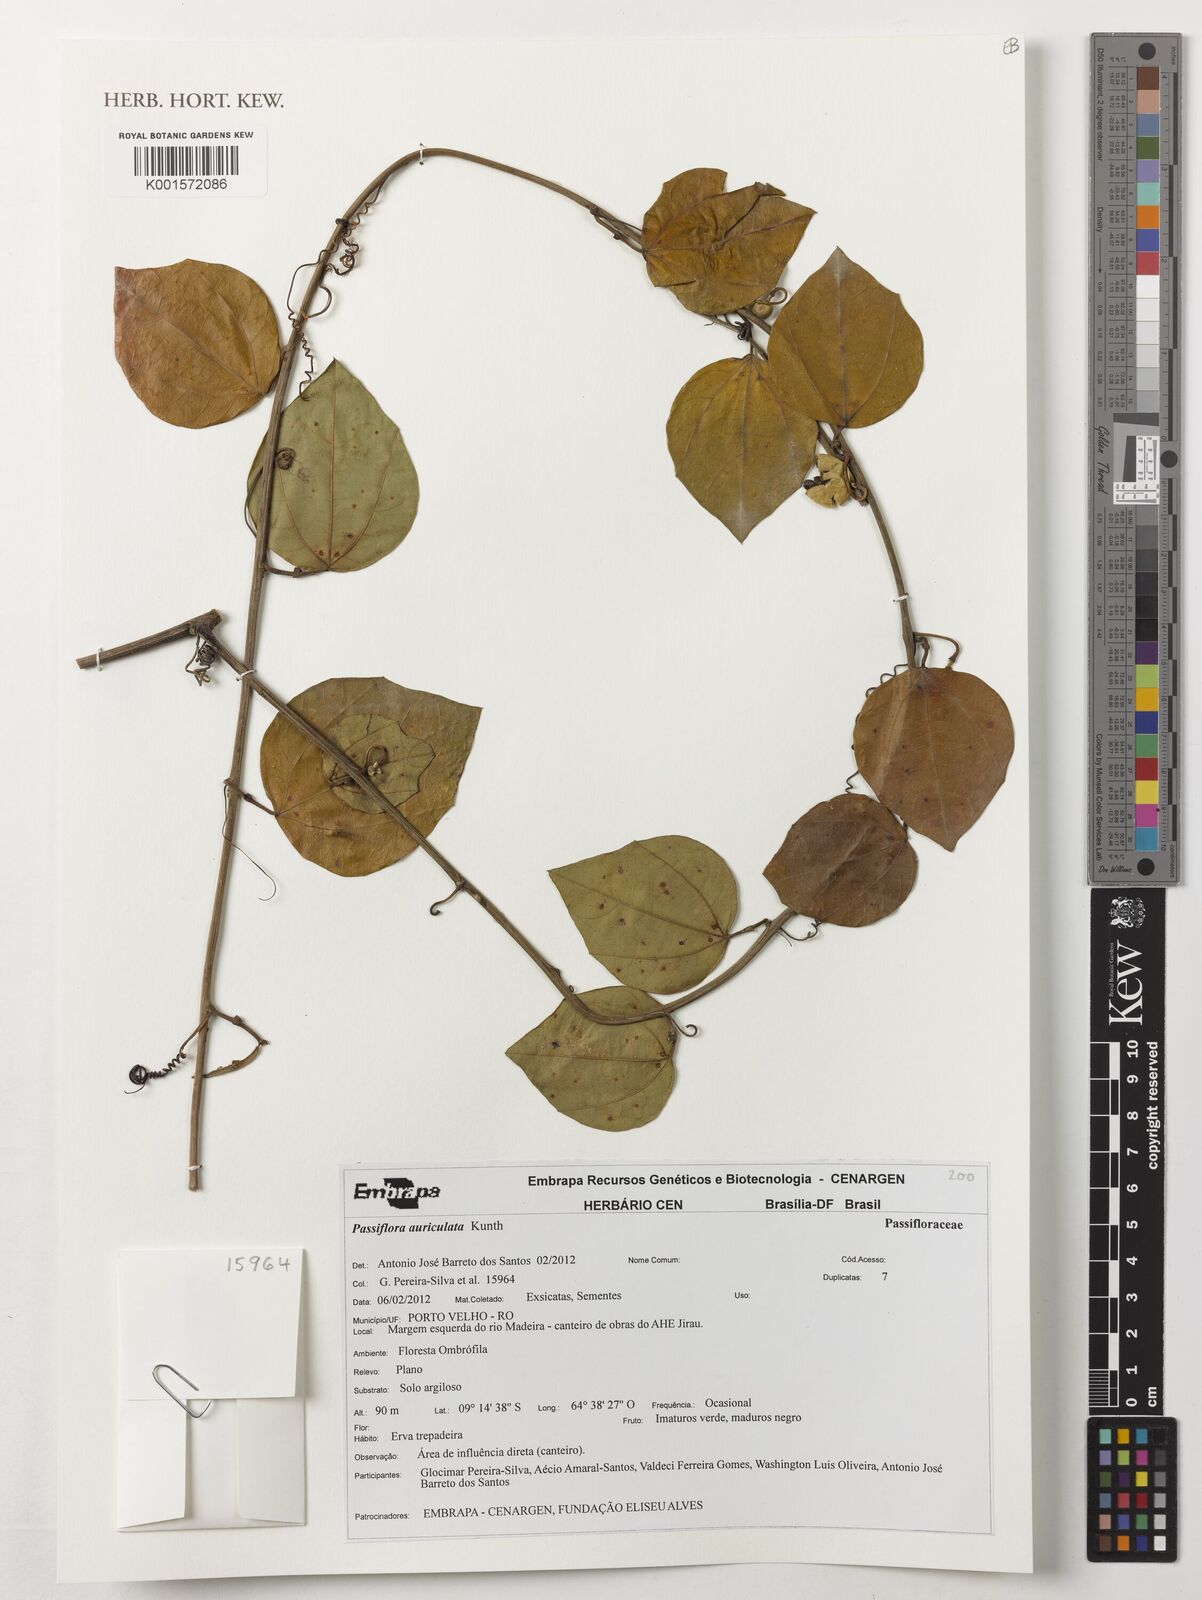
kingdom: Plantae
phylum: Tracheophyta
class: Magnoliopsida
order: Malpighiales
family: Passifloraceae
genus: Passiflora
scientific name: Passiflora auriculata
